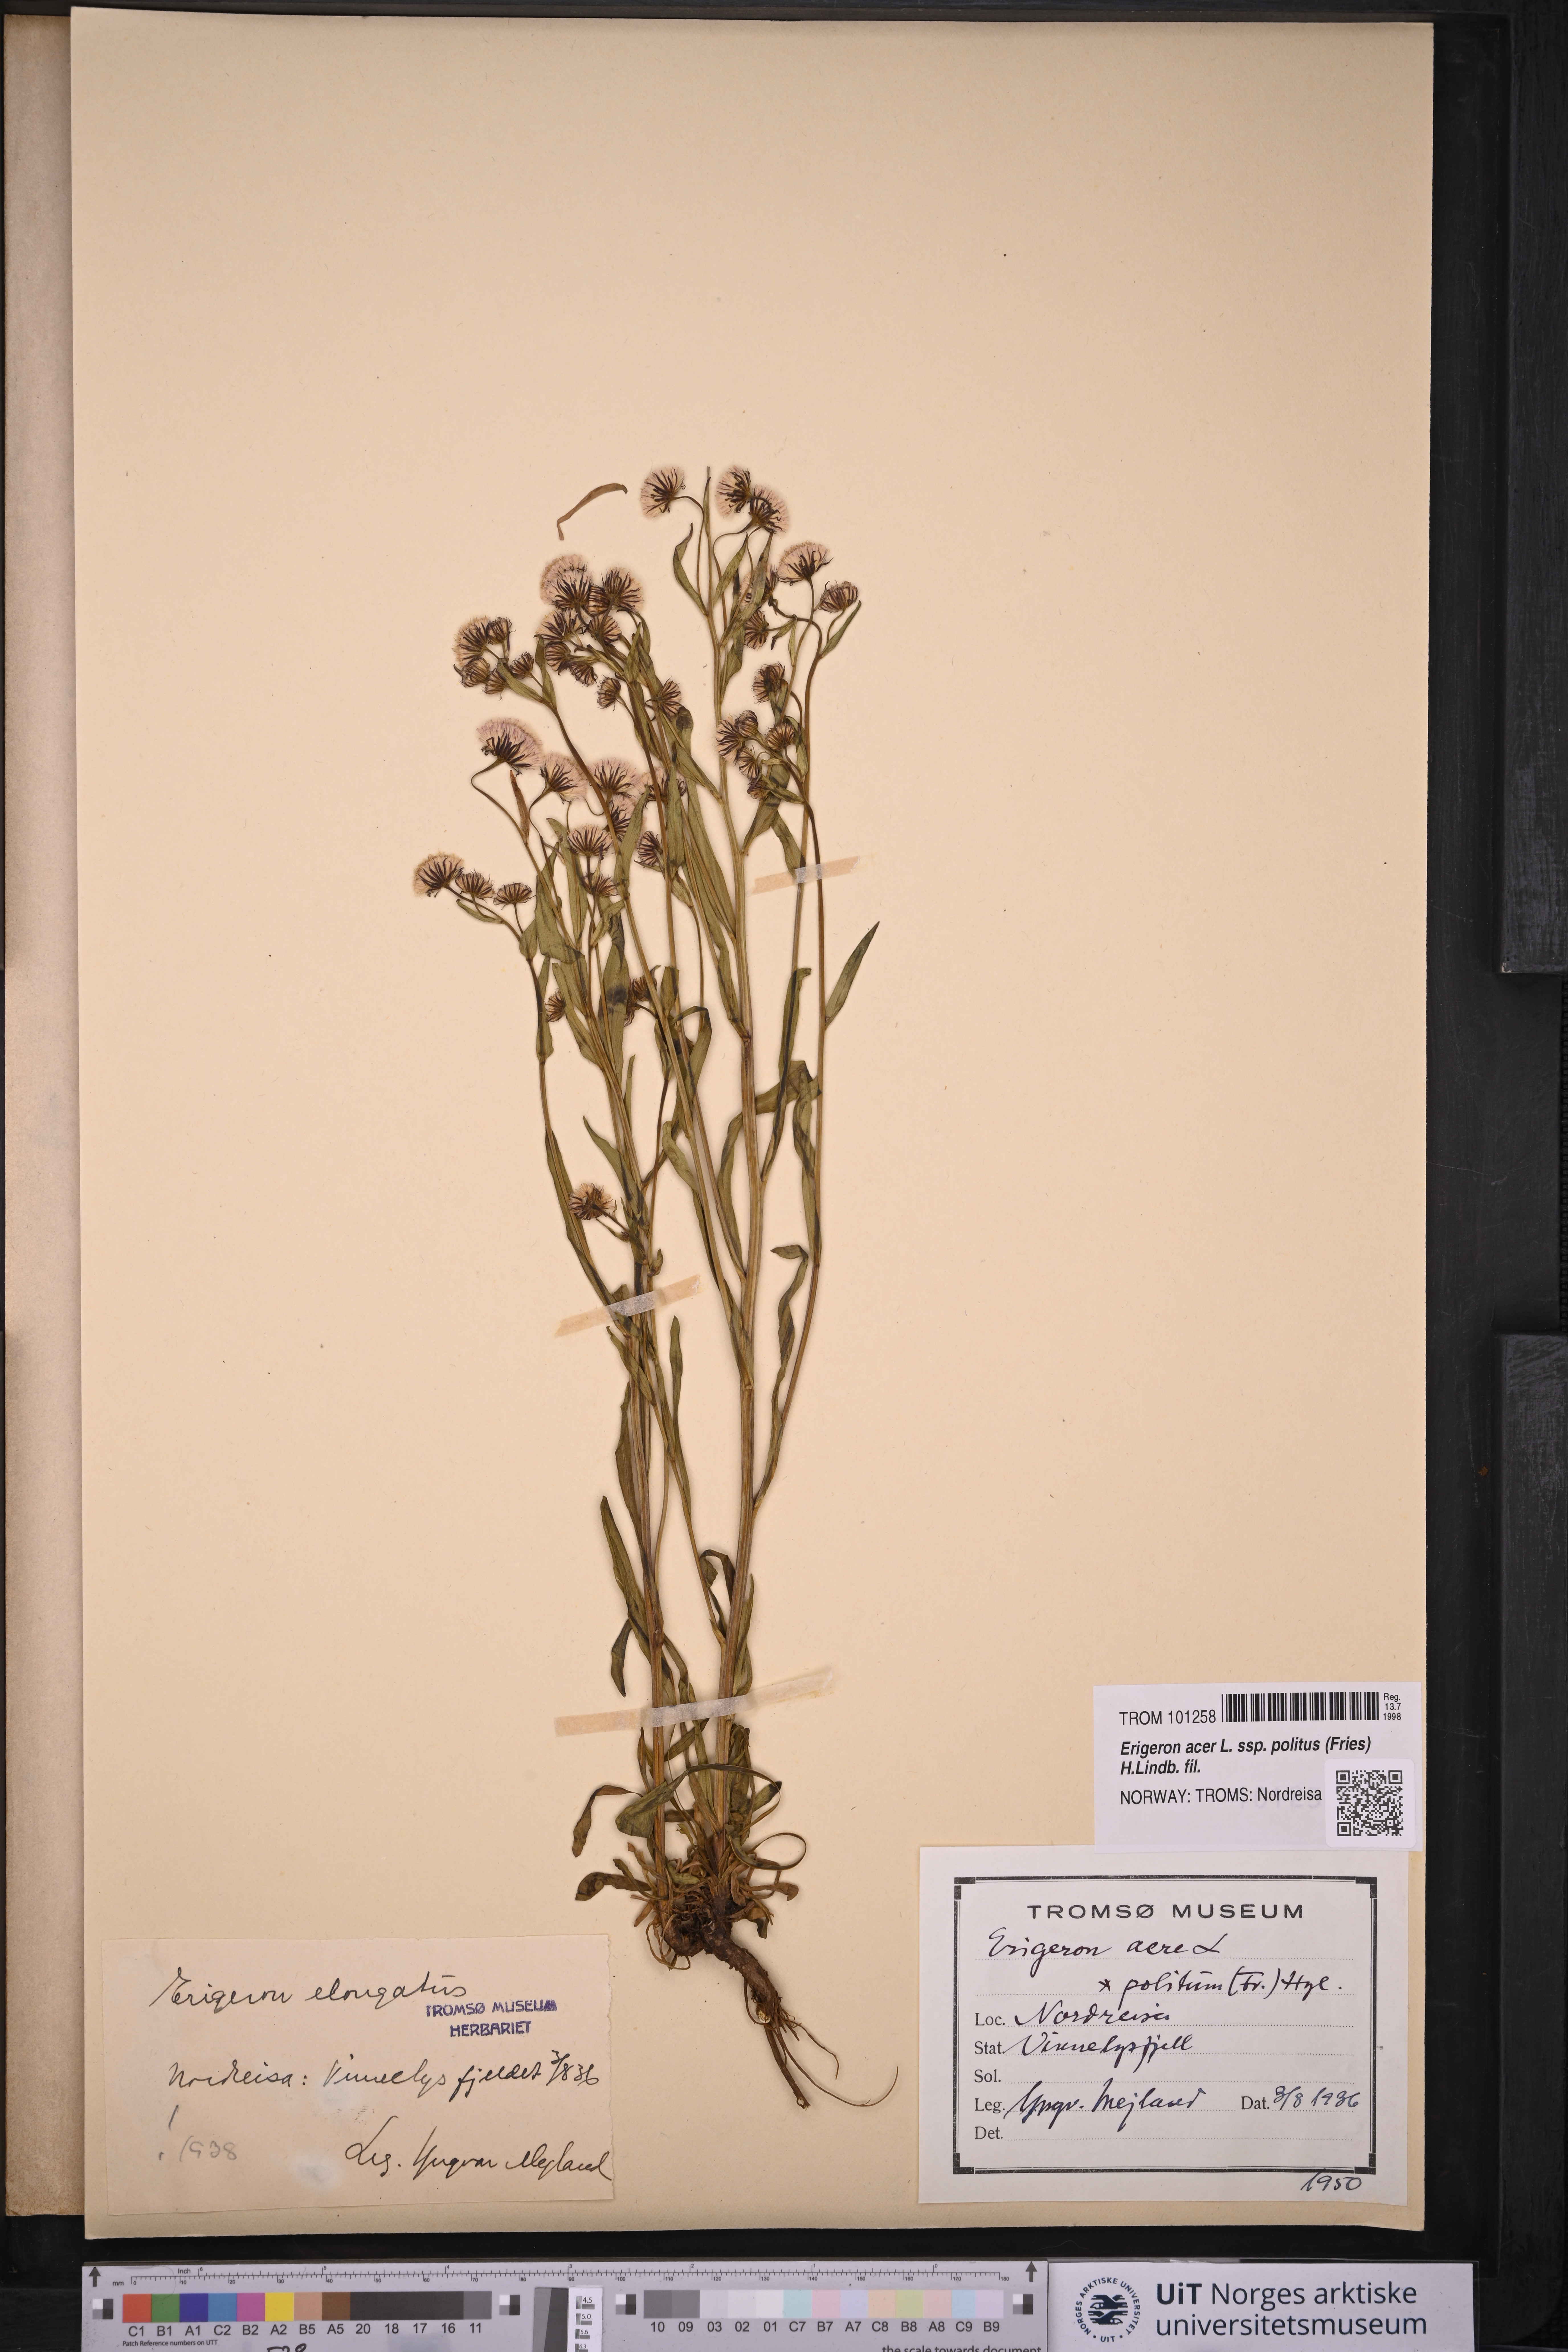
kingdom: Plantae
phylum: Tracheophyta
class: Magnoliopsida
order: Asterales
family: Asteraceae
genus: Erigeron
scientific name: Erigeron politus
